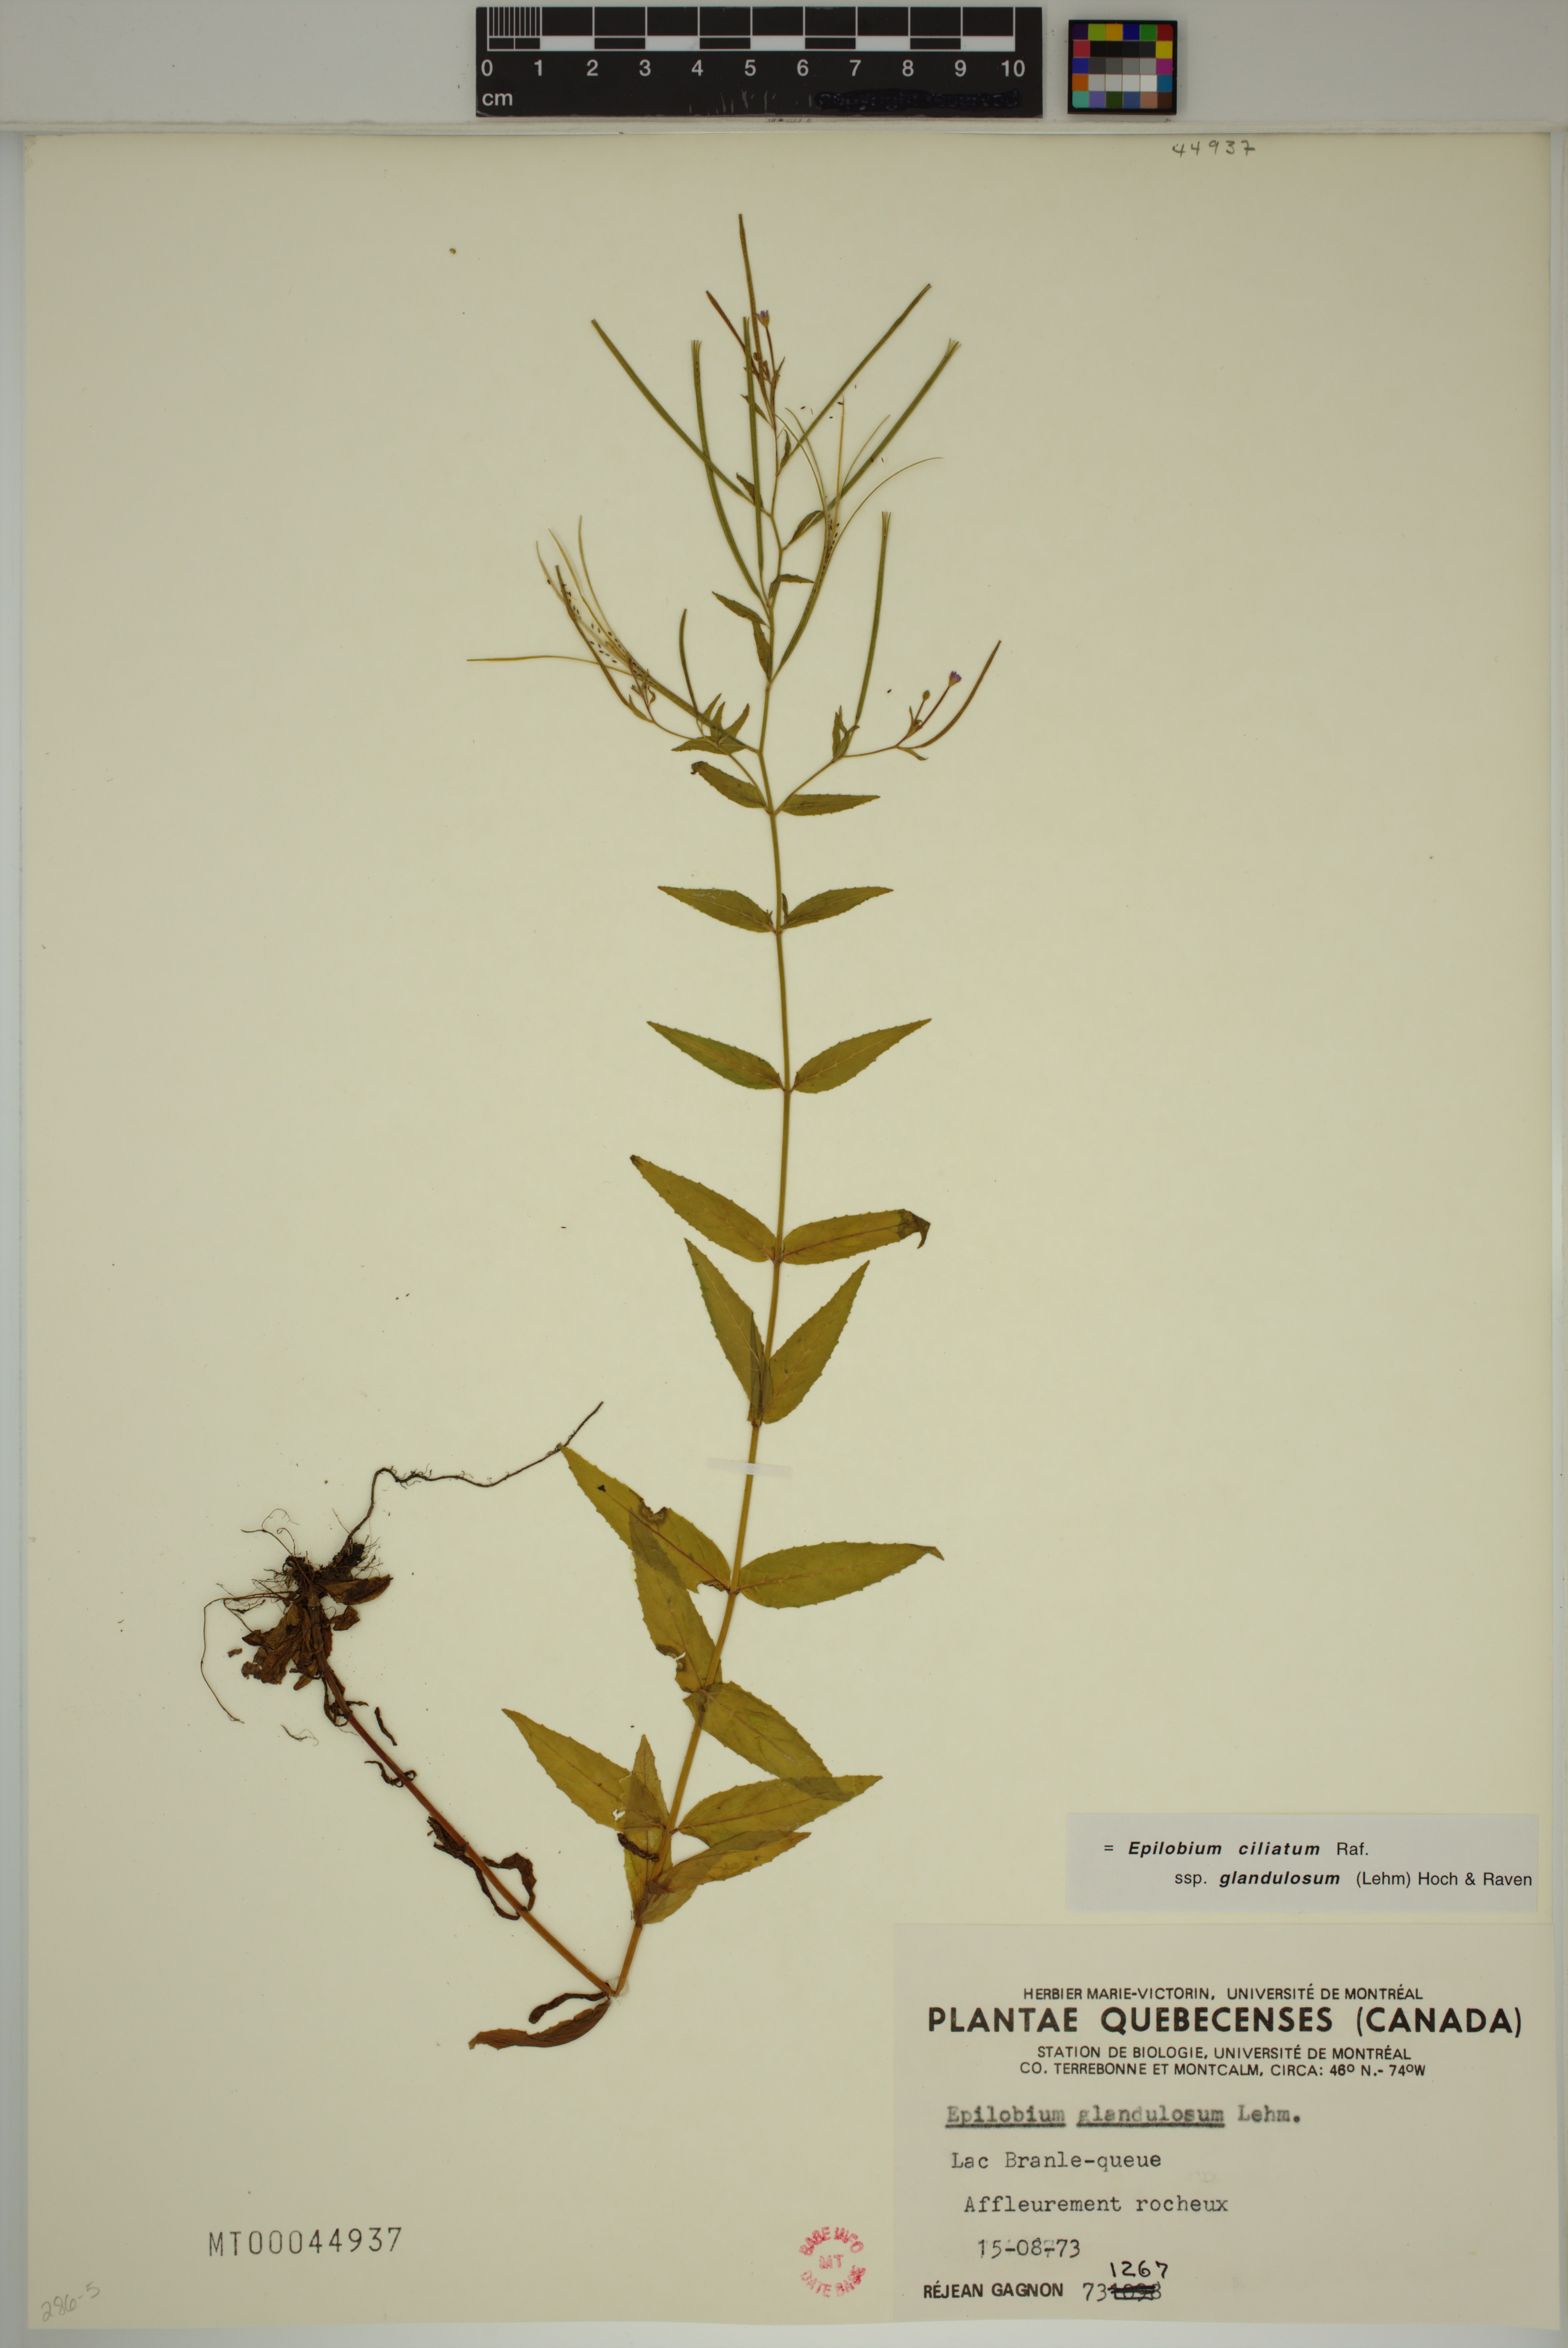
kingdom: Plantae
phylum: Tracheophyta
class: Magnoliopsida
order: Myrtales
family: Onagraceae
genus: Epilobium
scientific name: Epilobium ciliatum
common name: American willowherb
